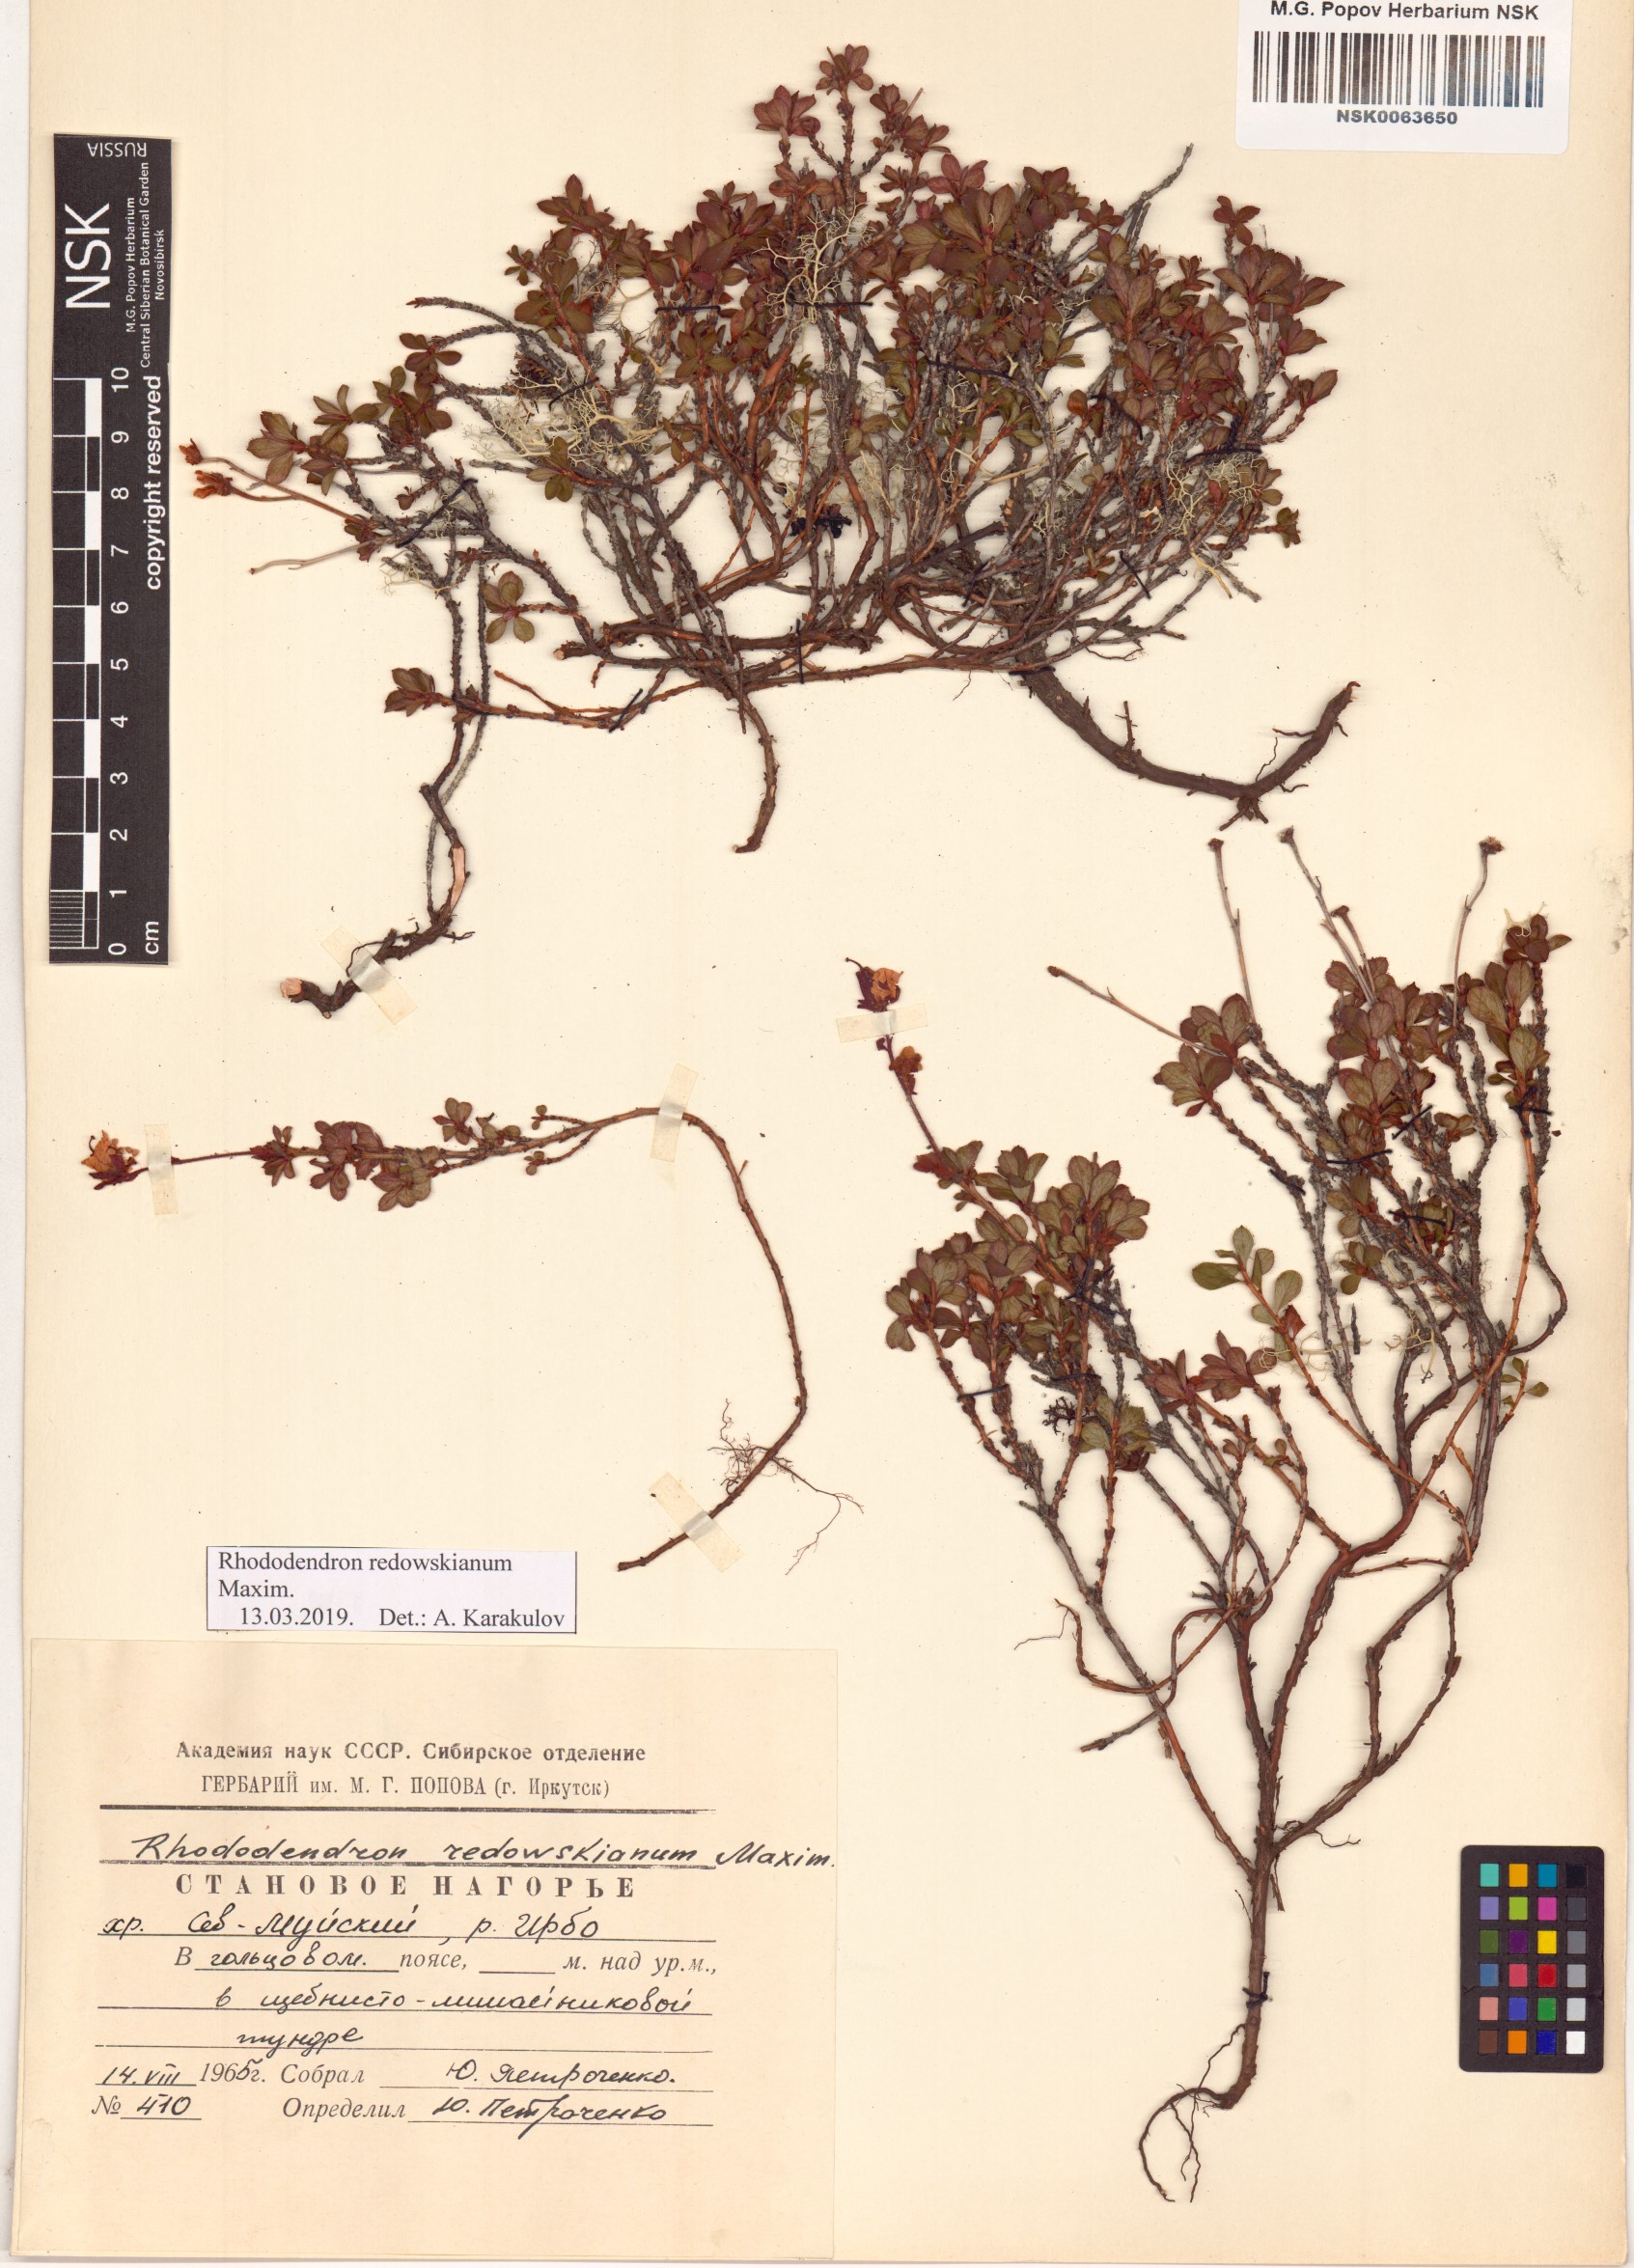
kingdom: Plantae
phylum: Tracheophyta
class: Magnoliopsida
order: Ericales
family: Ericaceae
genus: Rhododendron
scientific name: Rhododendron redowskianum
